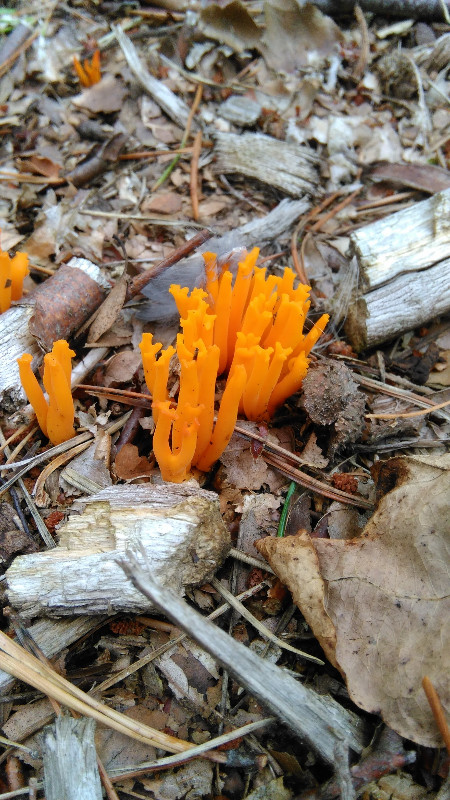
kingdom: Fungi
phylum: Basidiomycota
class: Dacrymycetes
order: Dacrymycetales
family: Dacrymycetaceae
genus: Calocera
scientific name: Calocera viscosa
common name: almindelig guldgaffel
